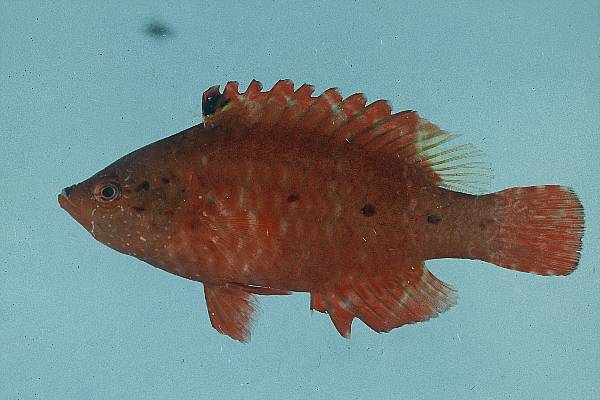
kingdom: Animalia
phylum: Chordata
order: Perciformes
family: Labridae
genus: Cheilinus
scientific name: Cheilinus oxycephalus
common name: Snooty wrasse
